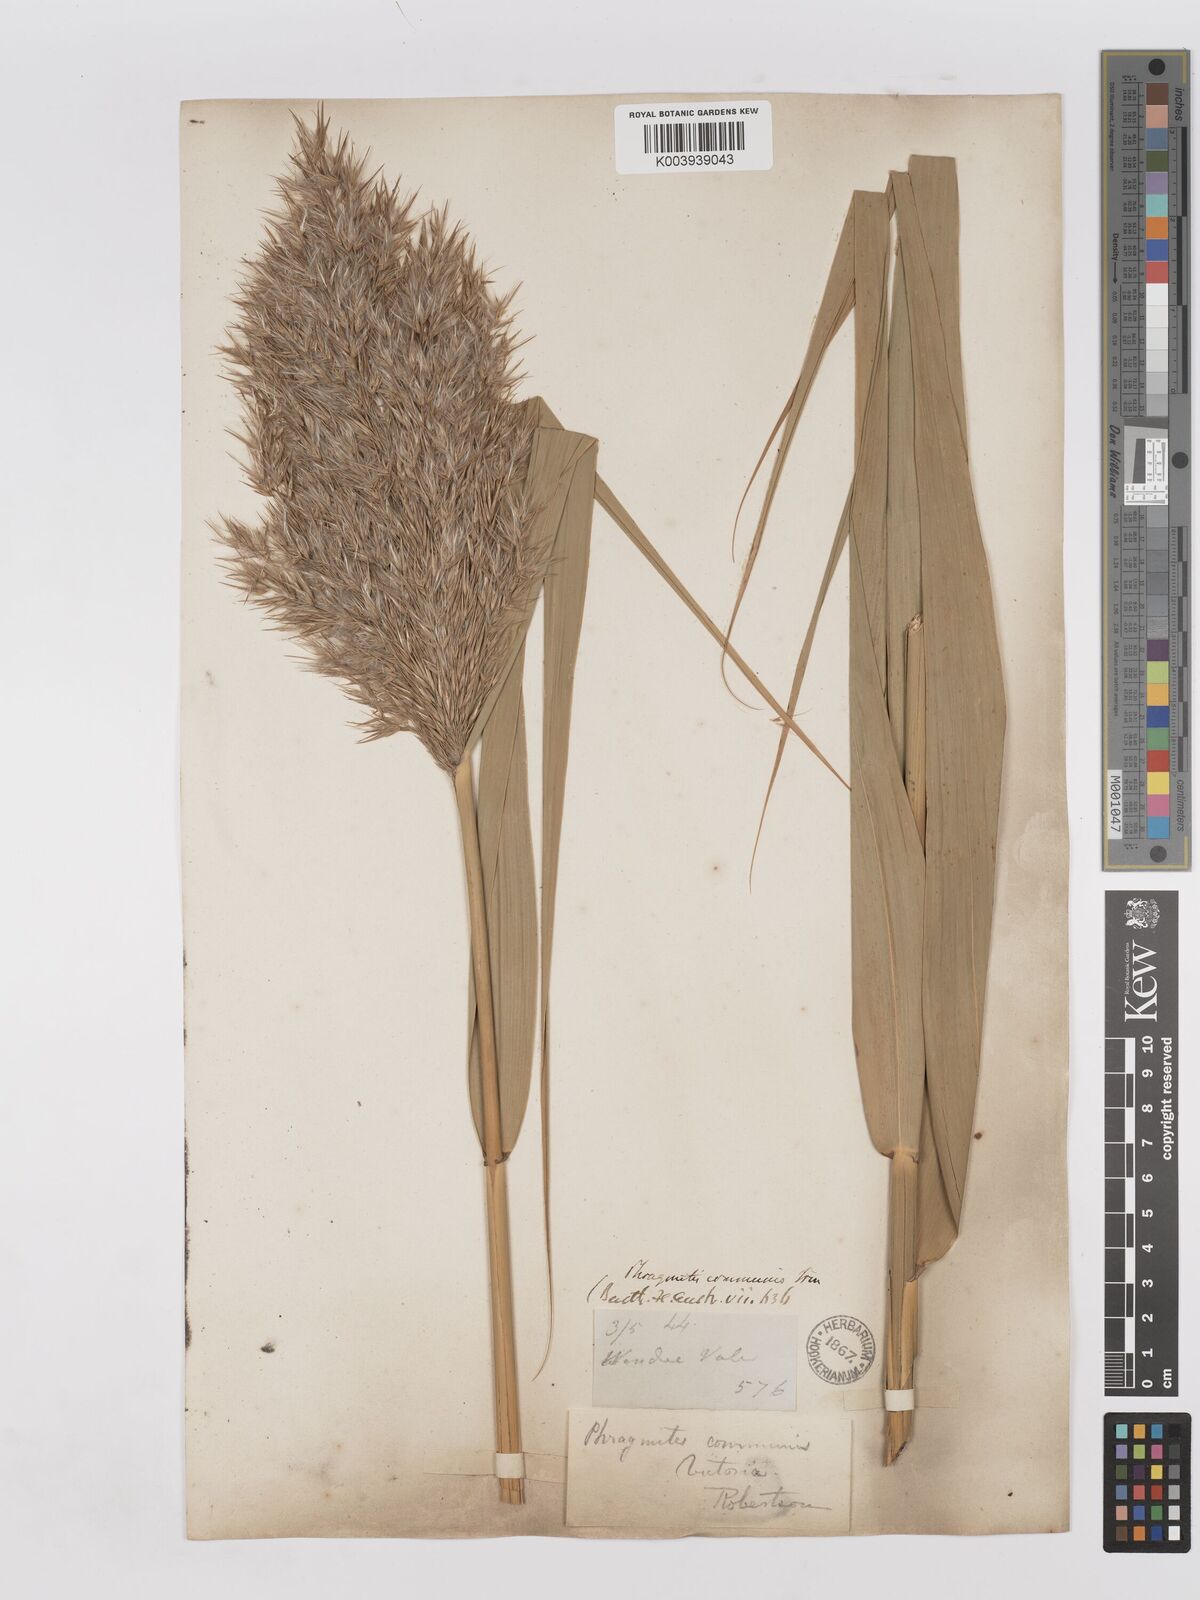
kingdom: Plantae
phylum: Tracheophyta
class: Liliopsida
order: Poales
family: Poaceae
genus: Phragmites
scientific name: Phragmites australis
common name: Common reed
